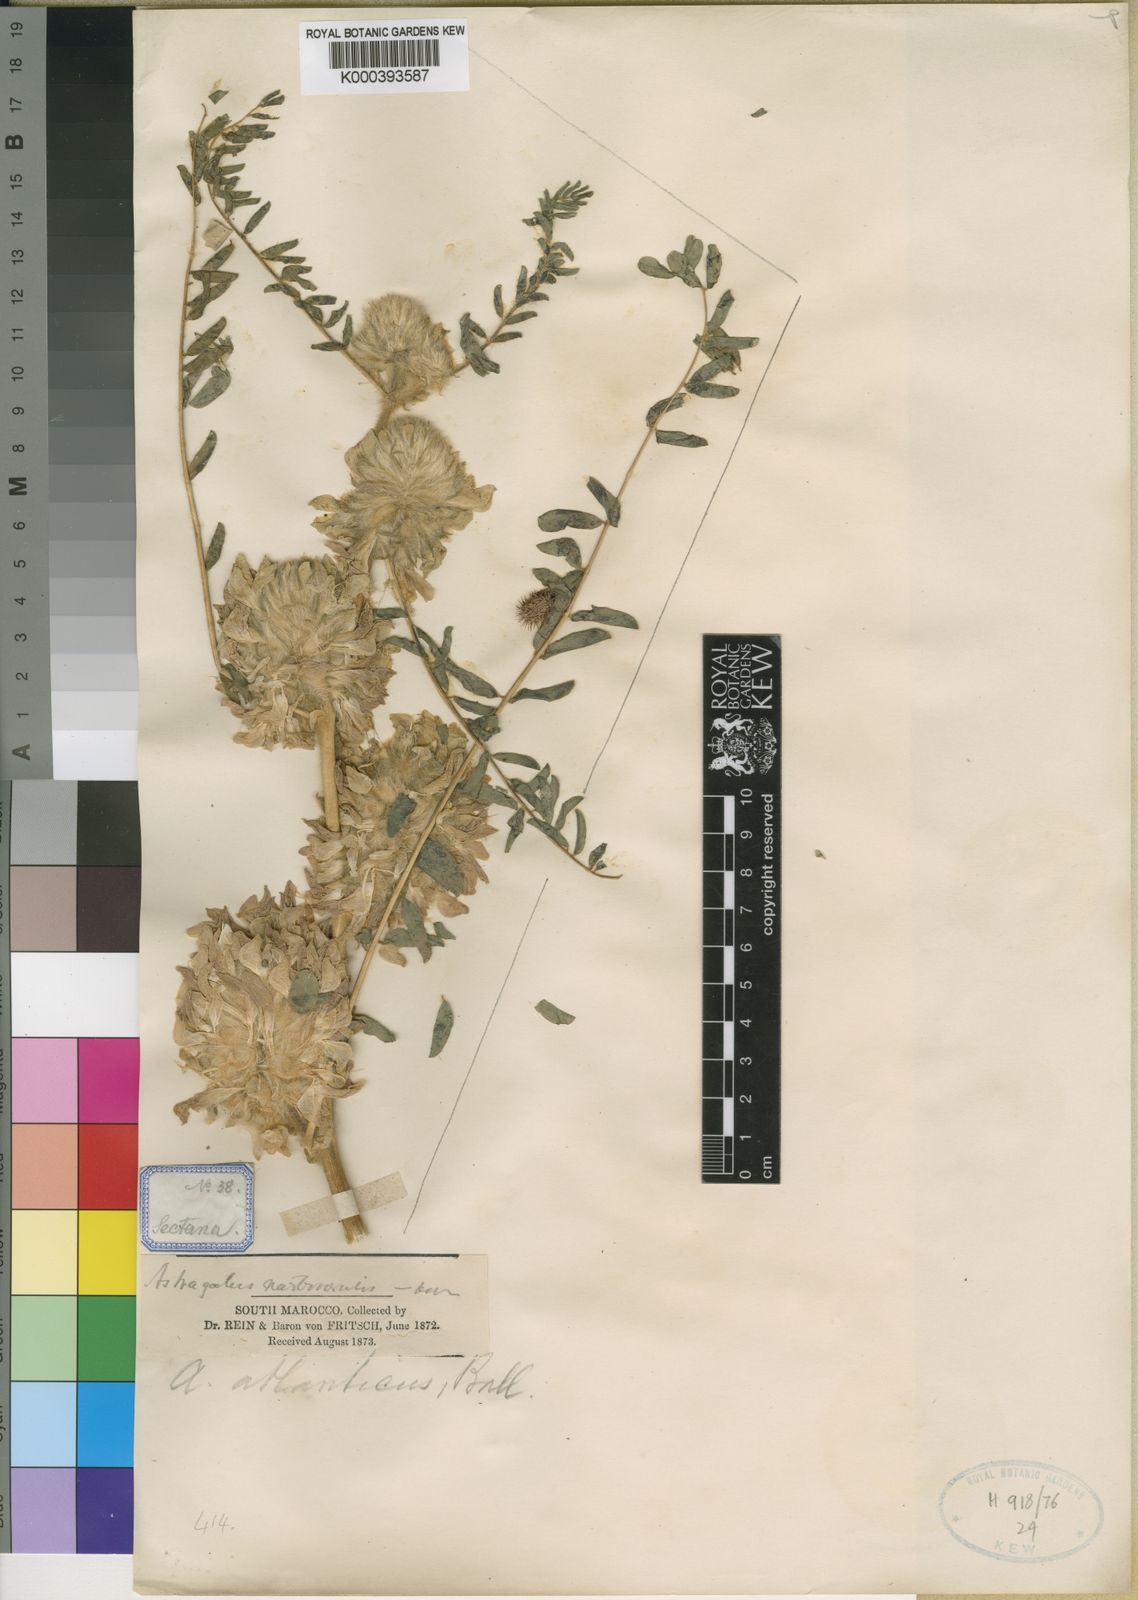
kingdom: Plantae
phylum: Tracheophyta
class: Magnoliopsida
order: Fabales
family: Fabaceae
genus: Astragalus
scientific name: Astragalus alopecuroides
